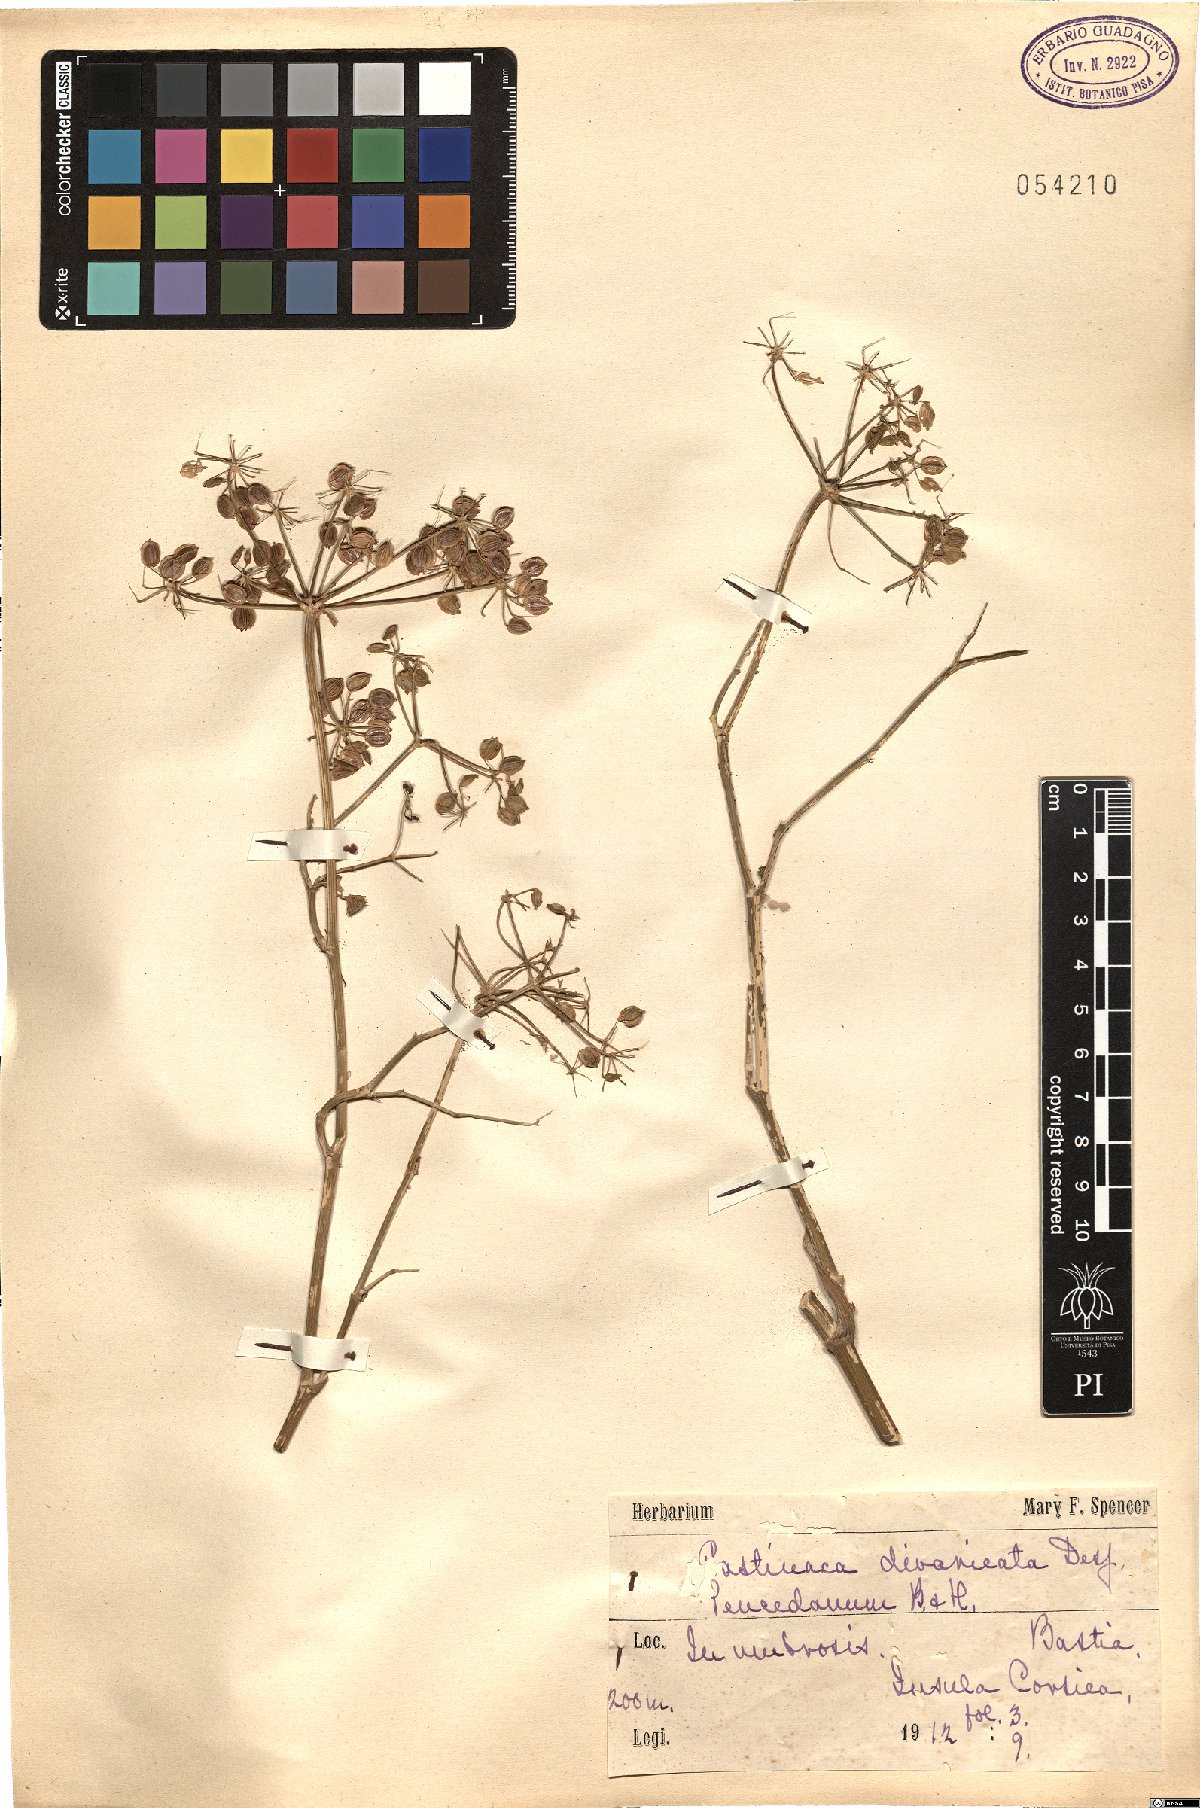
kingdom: Plantae
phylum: Tracheophyta
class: Magnoliopsida
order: Apiales
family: Apiaceae
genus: Pastinaca
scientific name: Pastinaca kochii
